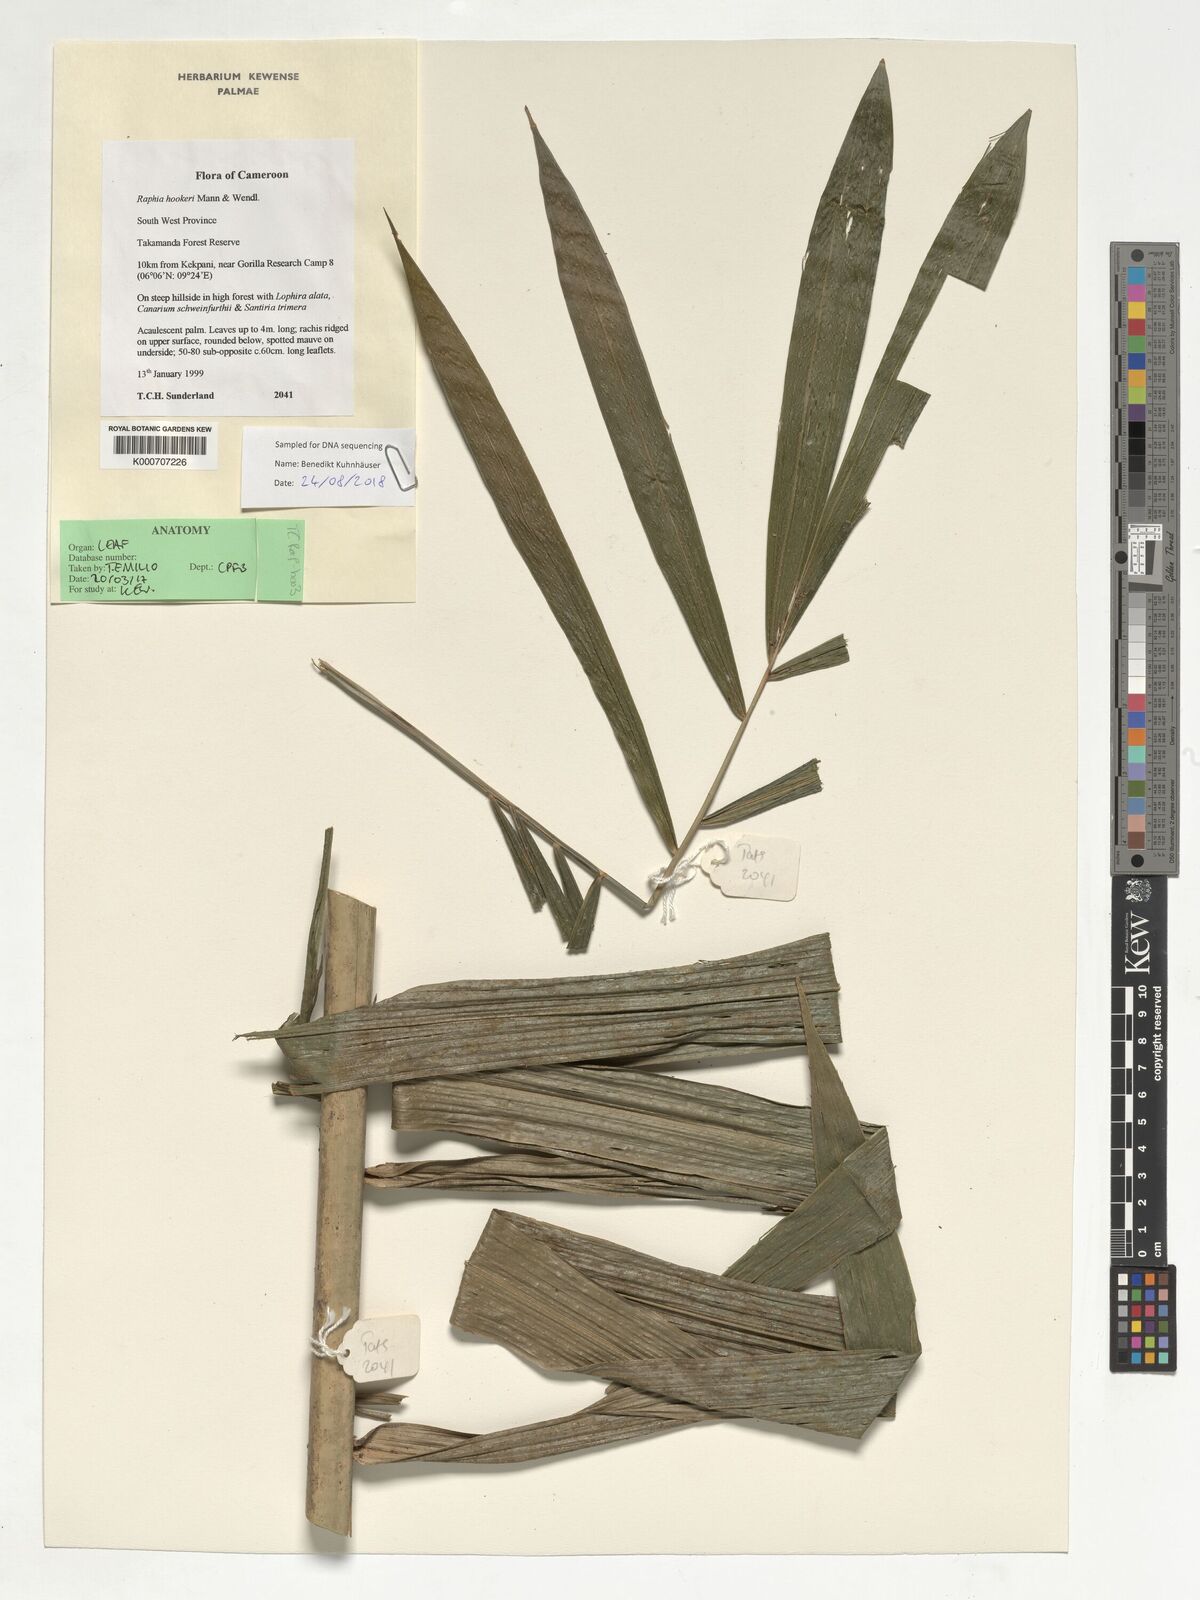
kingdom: Plantae
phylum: Tracheophyta
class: Liliopsida
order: Arecales
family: Arecaceae
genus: Raphia
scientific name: Raphia hookeri
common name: Wine palm
